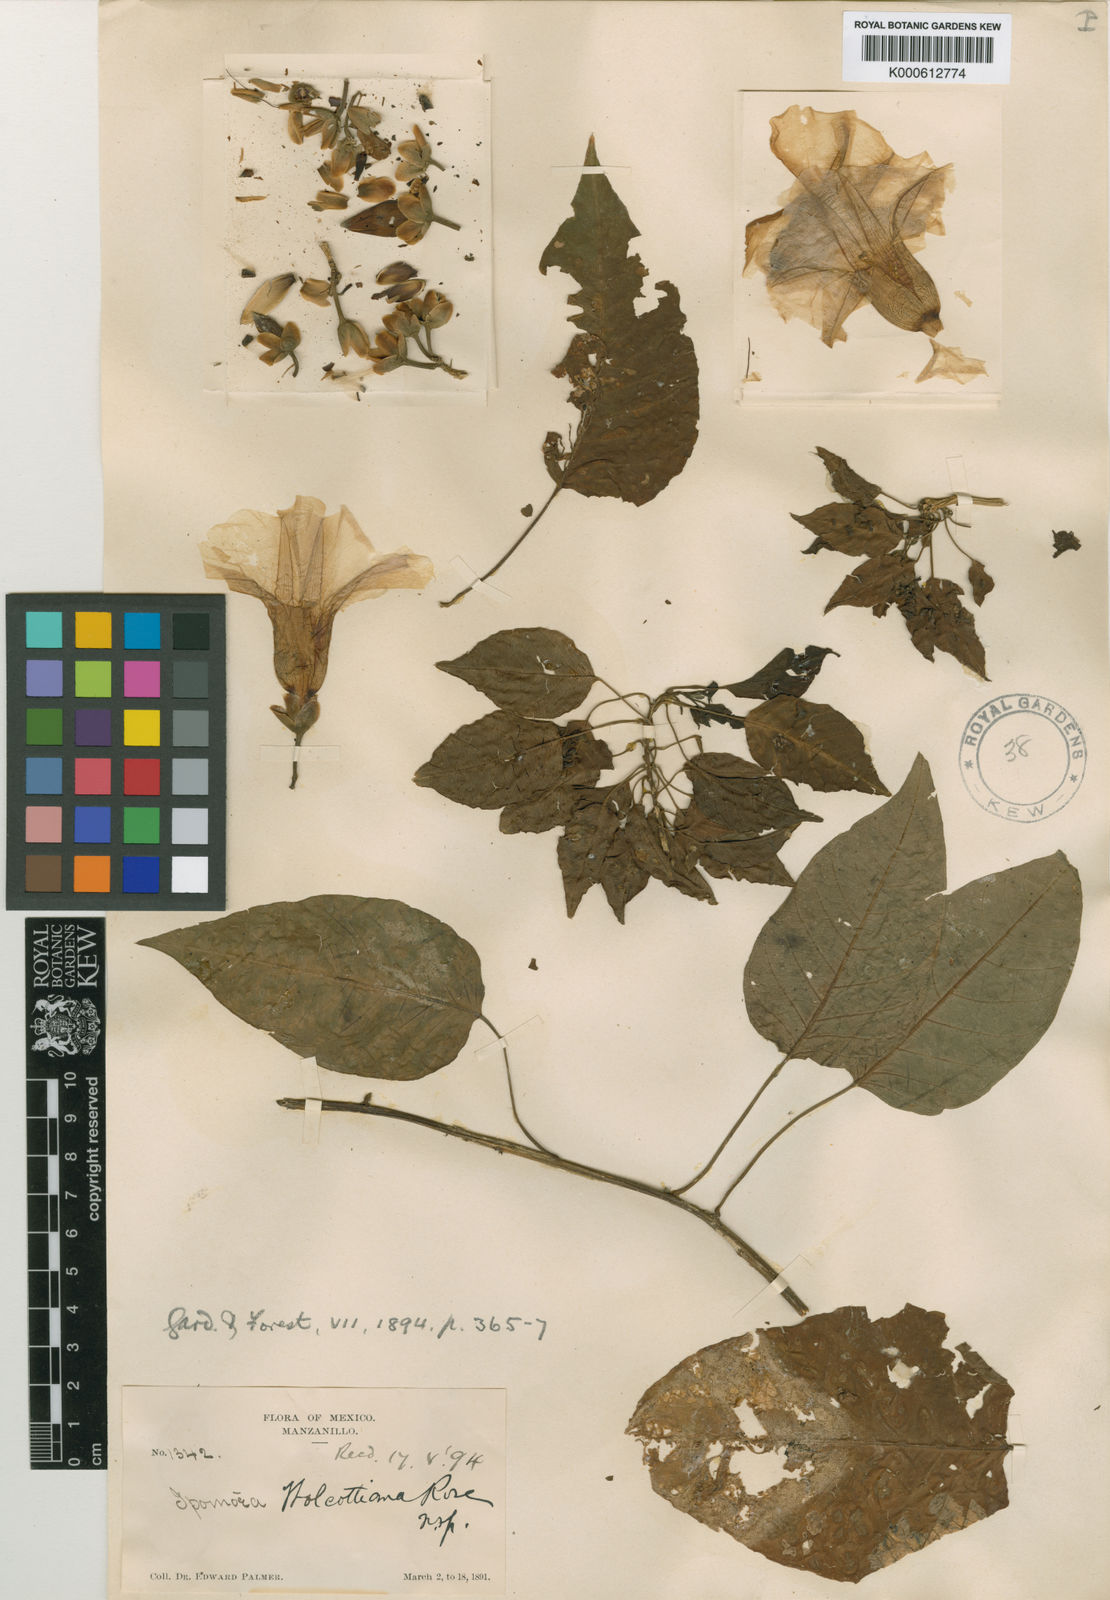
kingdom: Plantae
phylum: Tracheophyta
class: Magnoliopsida
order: Solanales
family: Convolvulaceae
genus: Ipomoea
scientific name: Ipomoea wolcottiana
